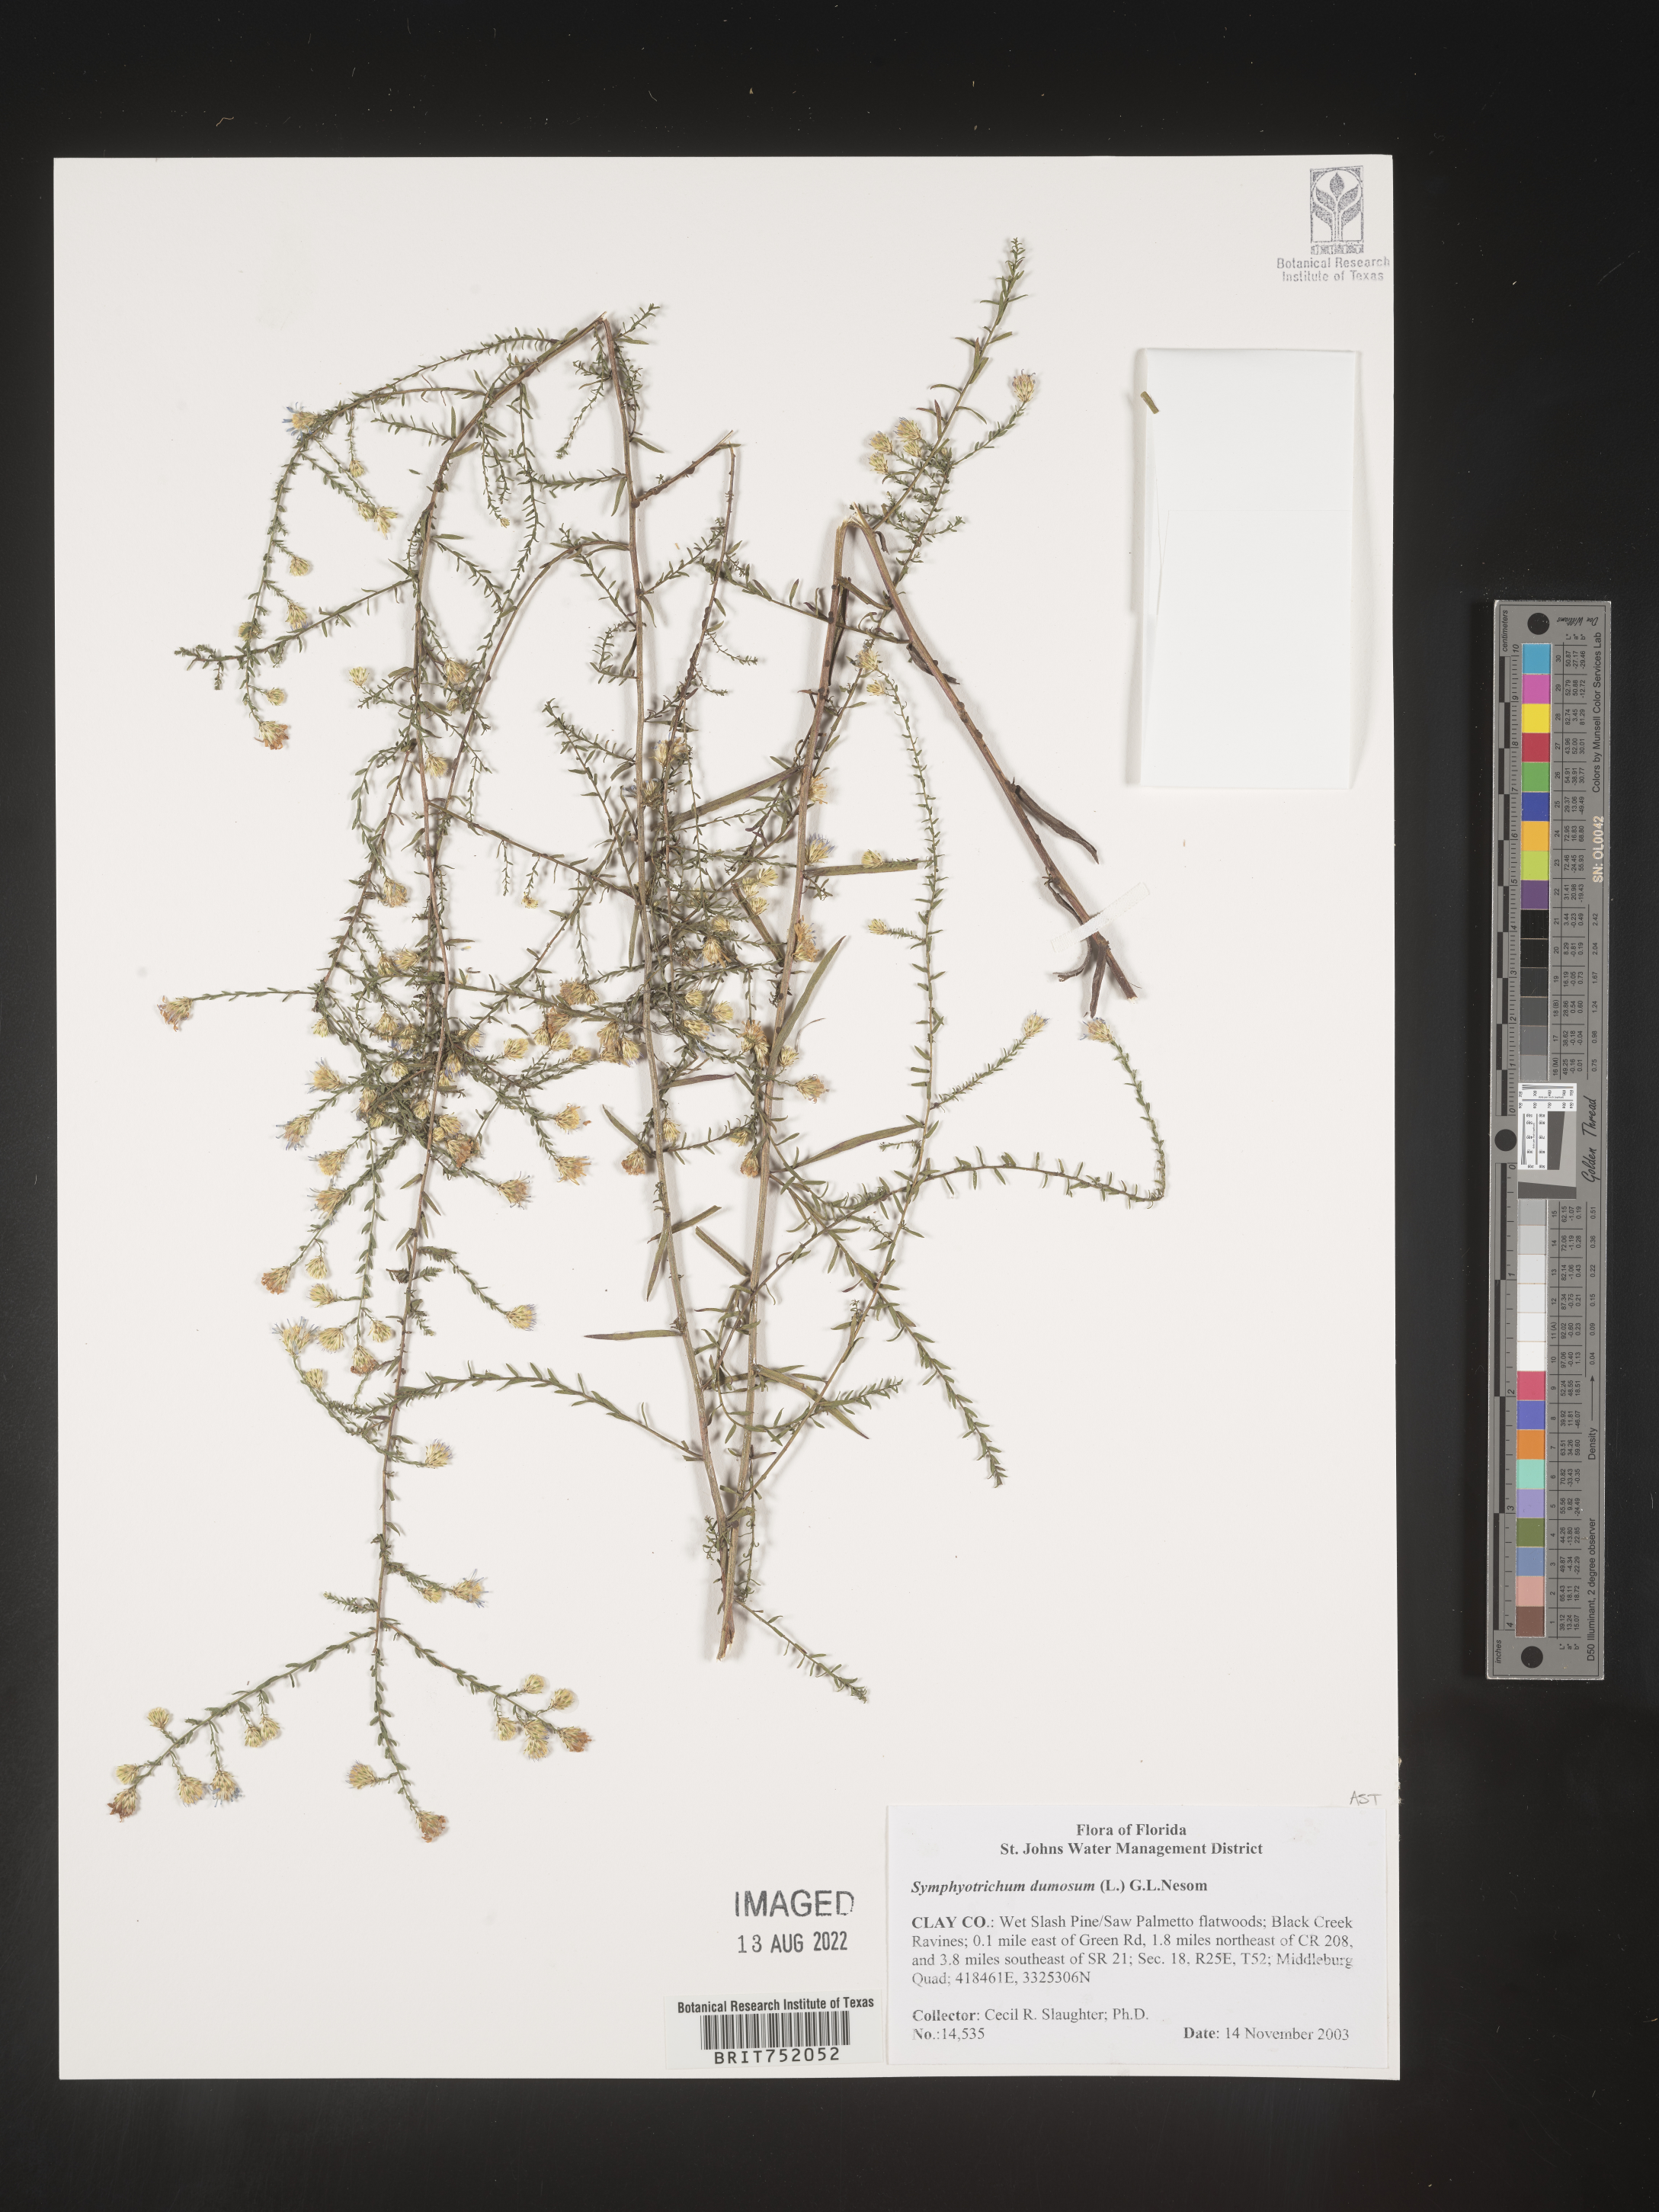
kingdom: Plantae
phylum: Tracheophyta
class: Magnoliopsida
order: Asterales
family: Asteraceae
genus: Symphyotrichum
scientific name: Symphyotrichum dumosum
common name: Bushy aster
